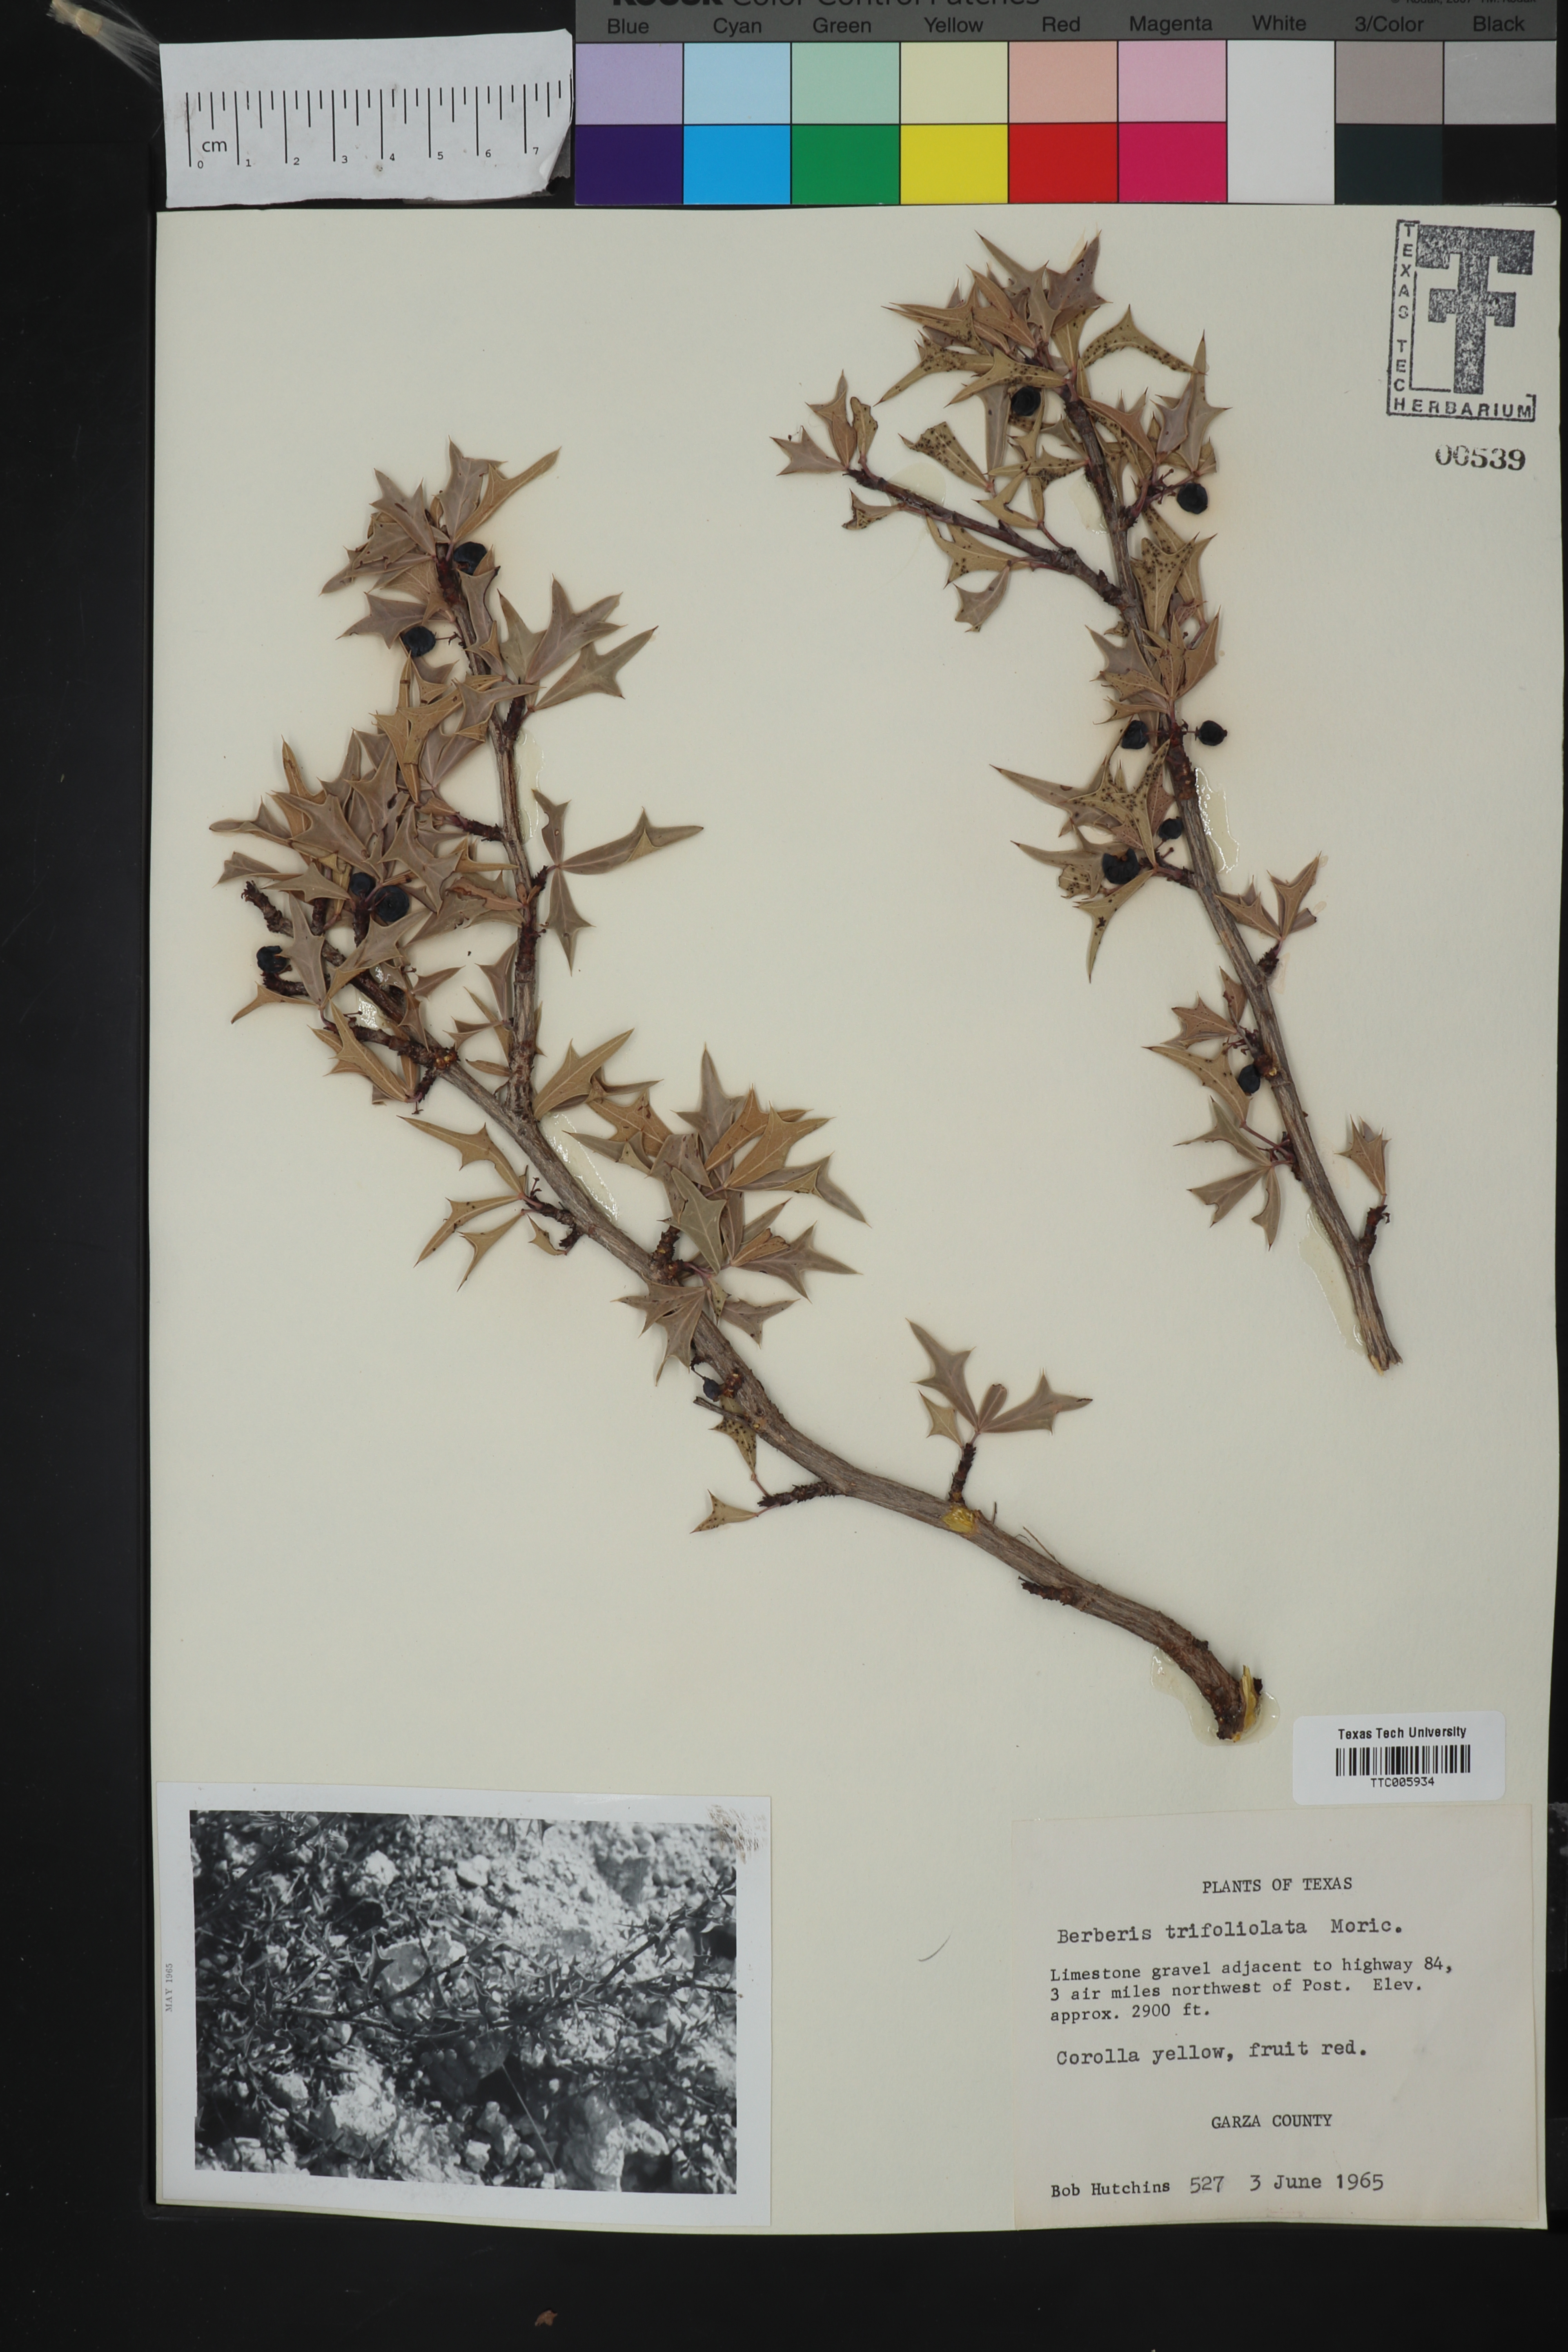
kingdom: Plantae
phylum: Tracheophyta
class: Magnoliopsida
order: Ranunculales
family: Berberidaceae
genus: Alloberberis
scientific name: Alloberberis trifoliolata
